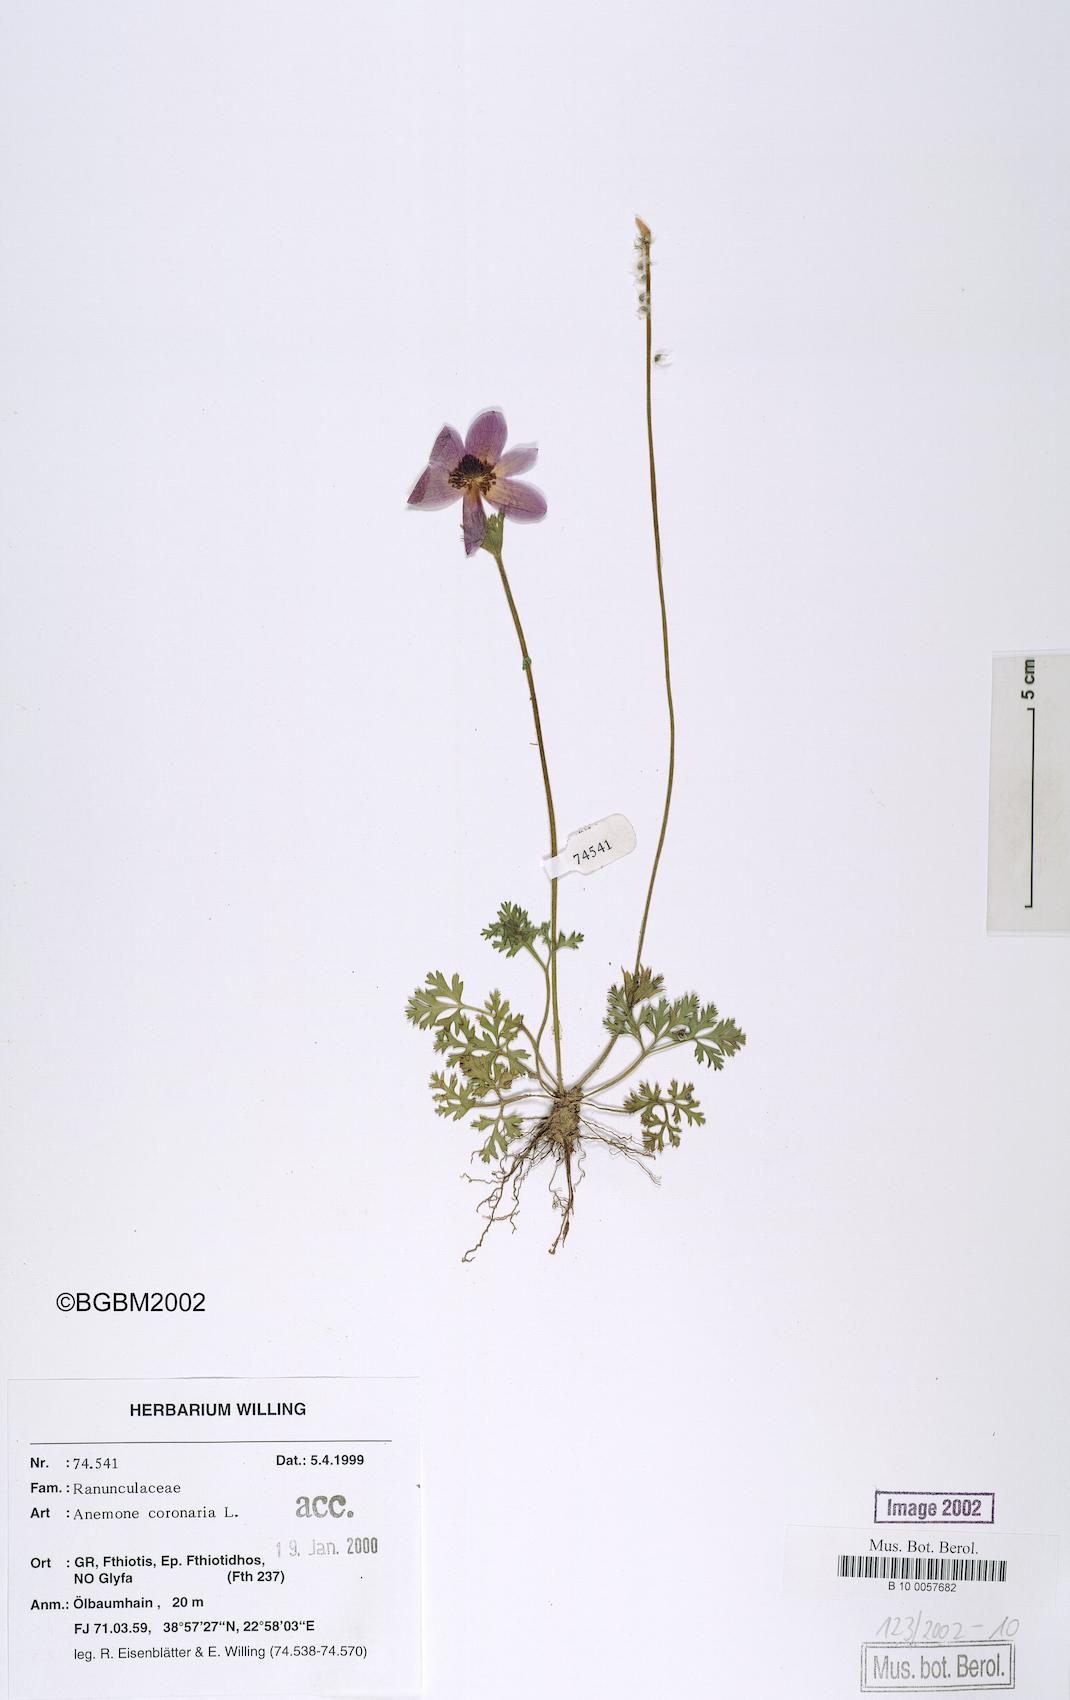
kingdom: Plantae
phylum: Tracheophyta
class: Magnoliopsida
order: Ranunculales
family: Ranunculaceae
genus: Anemone
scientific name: Anemone coronaria
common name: Poppy anemone
